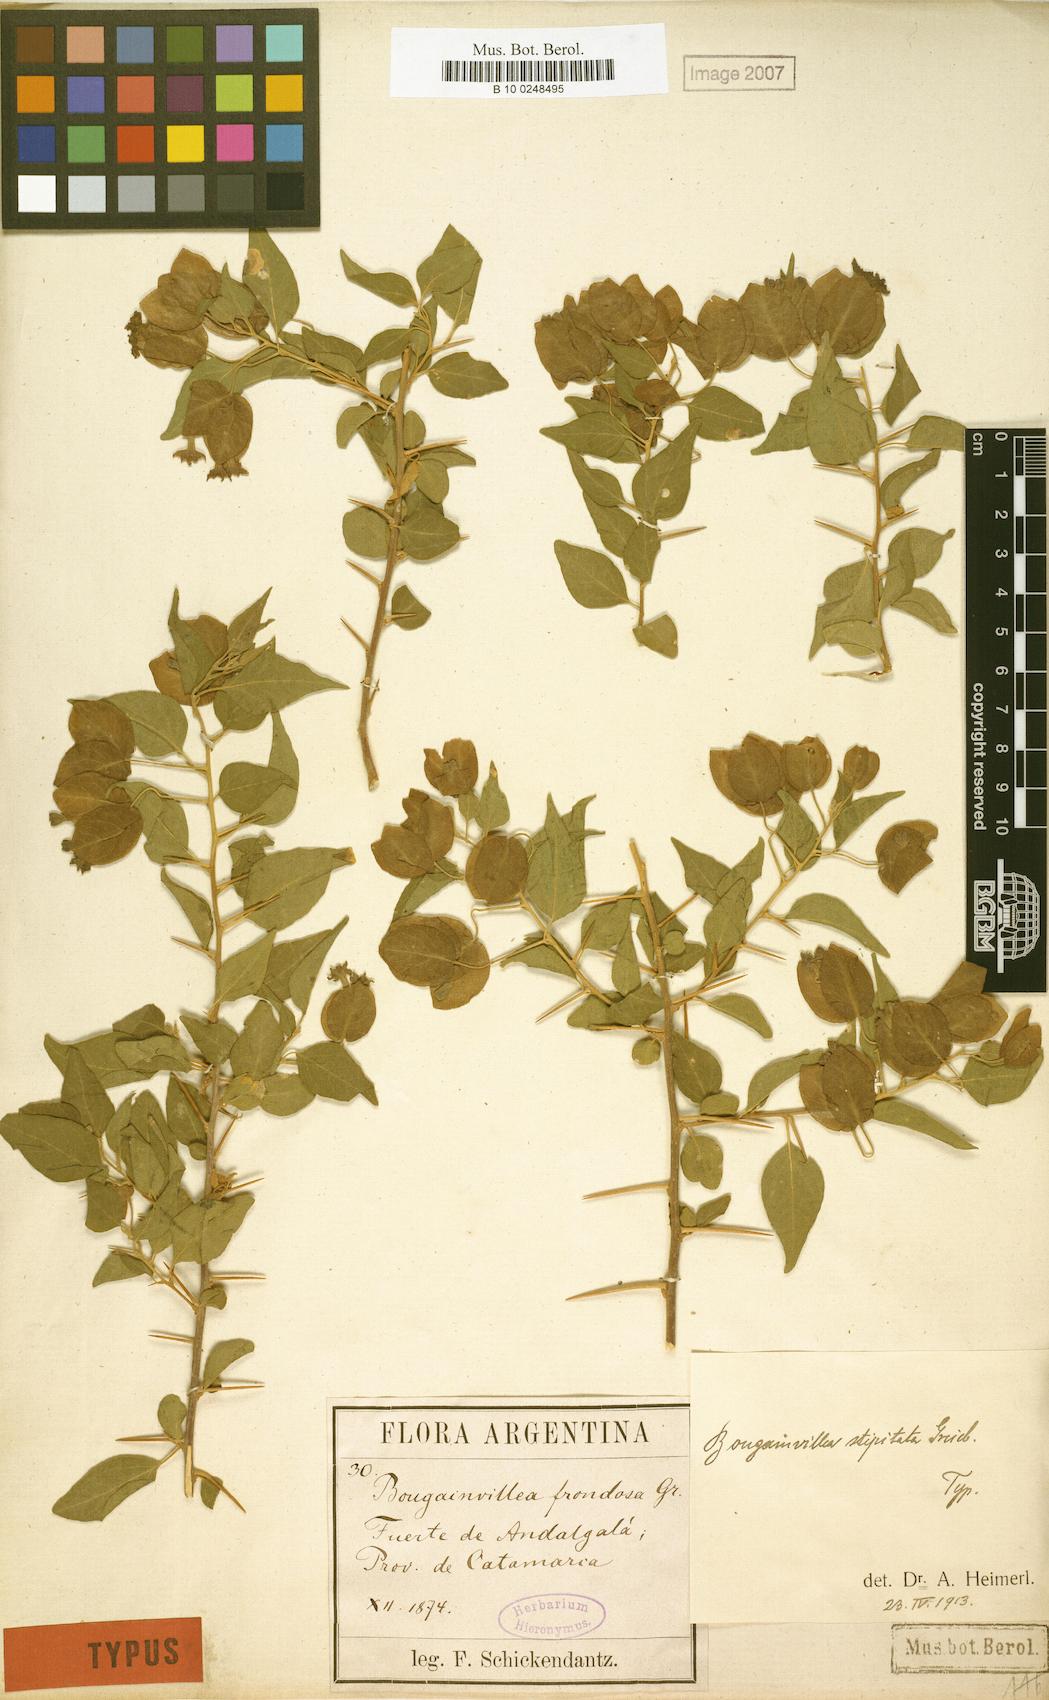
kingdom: Plantae
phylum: Tracheophyta
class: Magnoliopsida
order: Caryophyllales
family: Nyctaginaceae
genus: Bougainvillea
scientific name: Bougainvillea stipitata
